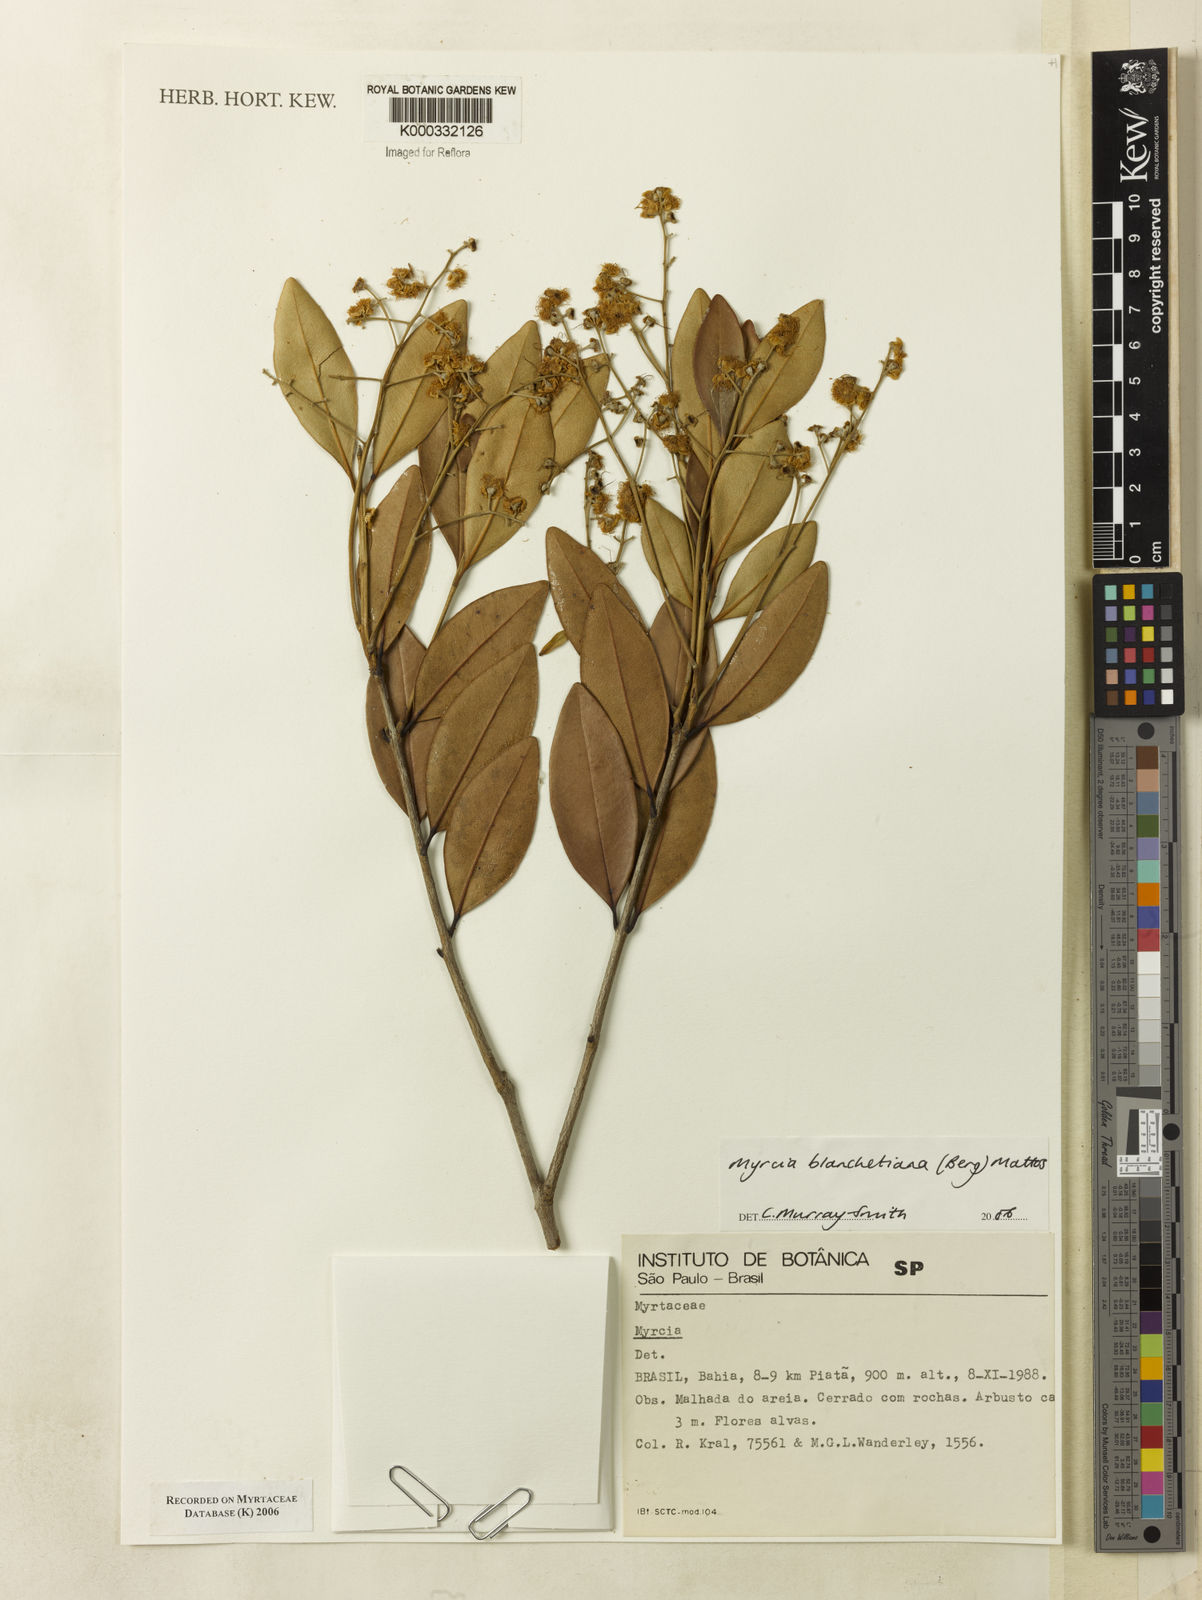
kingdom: Plantae
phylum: Tracheophyta
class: Magnoliopsida
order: Myrtales
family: Myrtaceae
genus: Myrcia
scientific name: Myrcia blanchetiana
